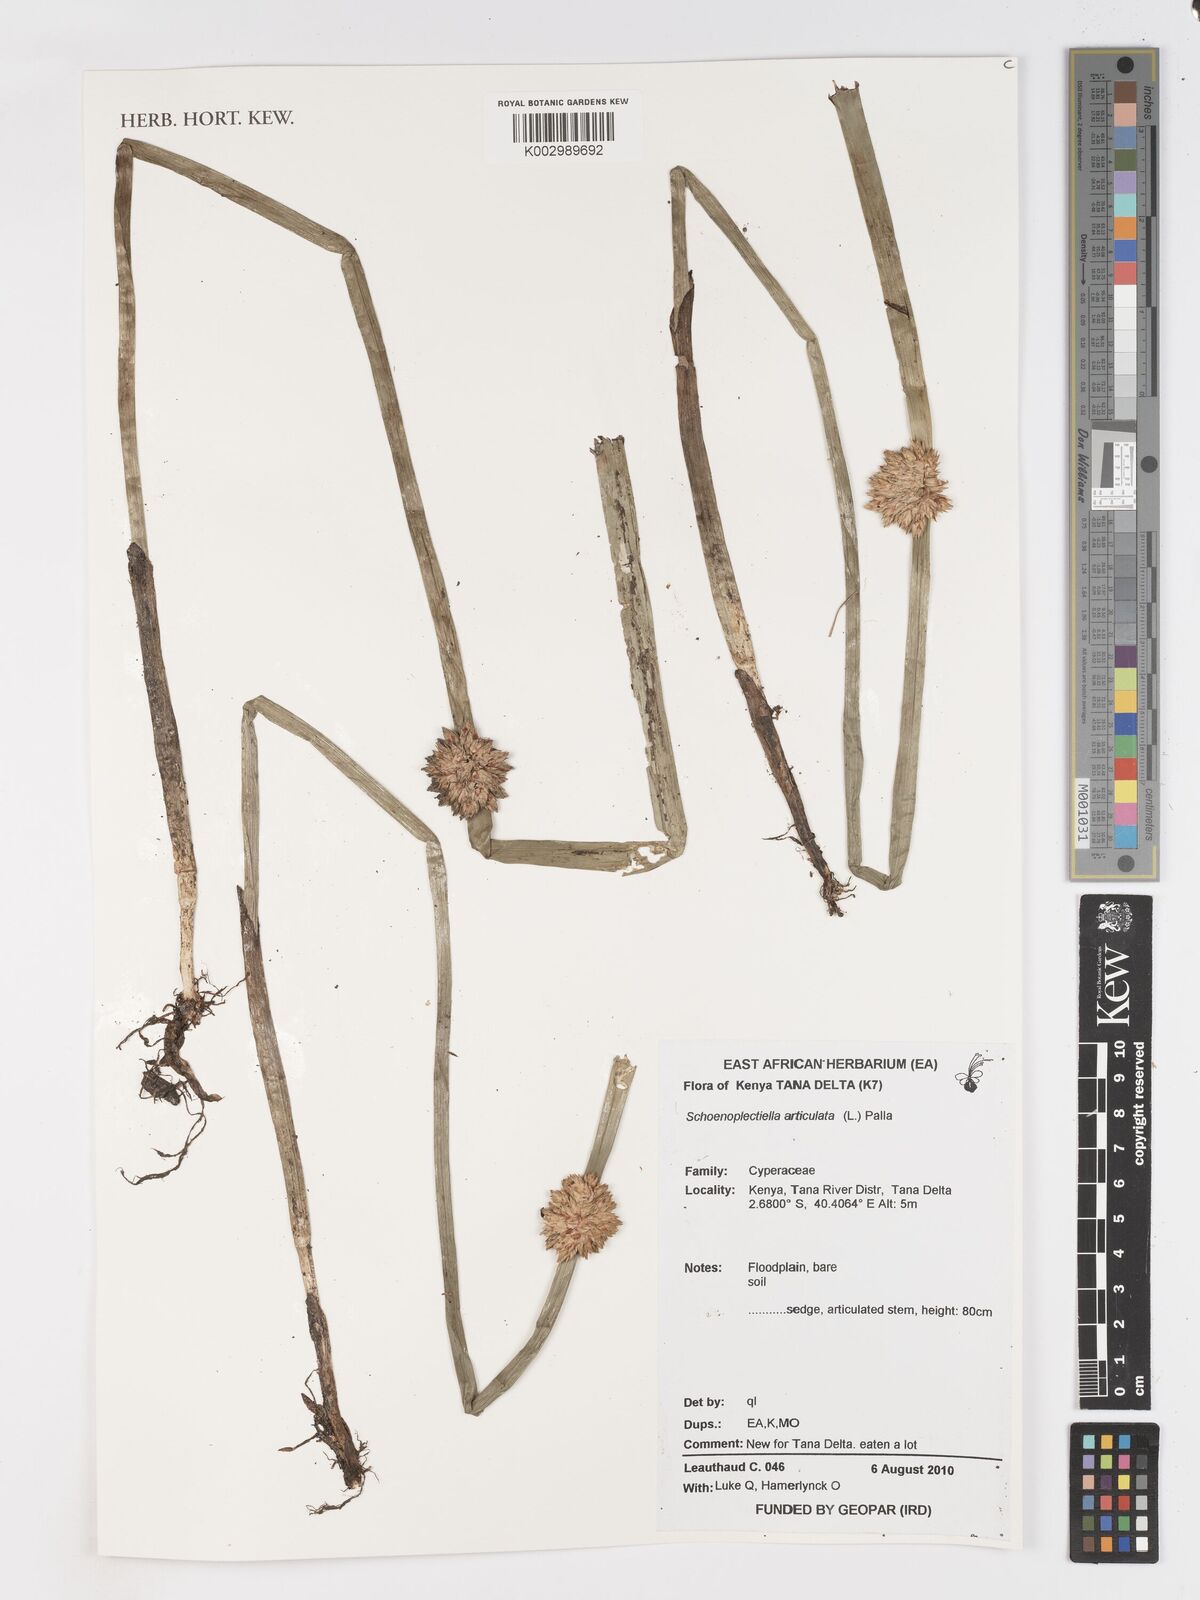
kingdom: Plantae
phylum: Tracheophyta
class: Liliopsida
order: Poales
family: Cyperaceae
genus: Schoenoplectiella
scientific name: Schoenoplectiella articulata
